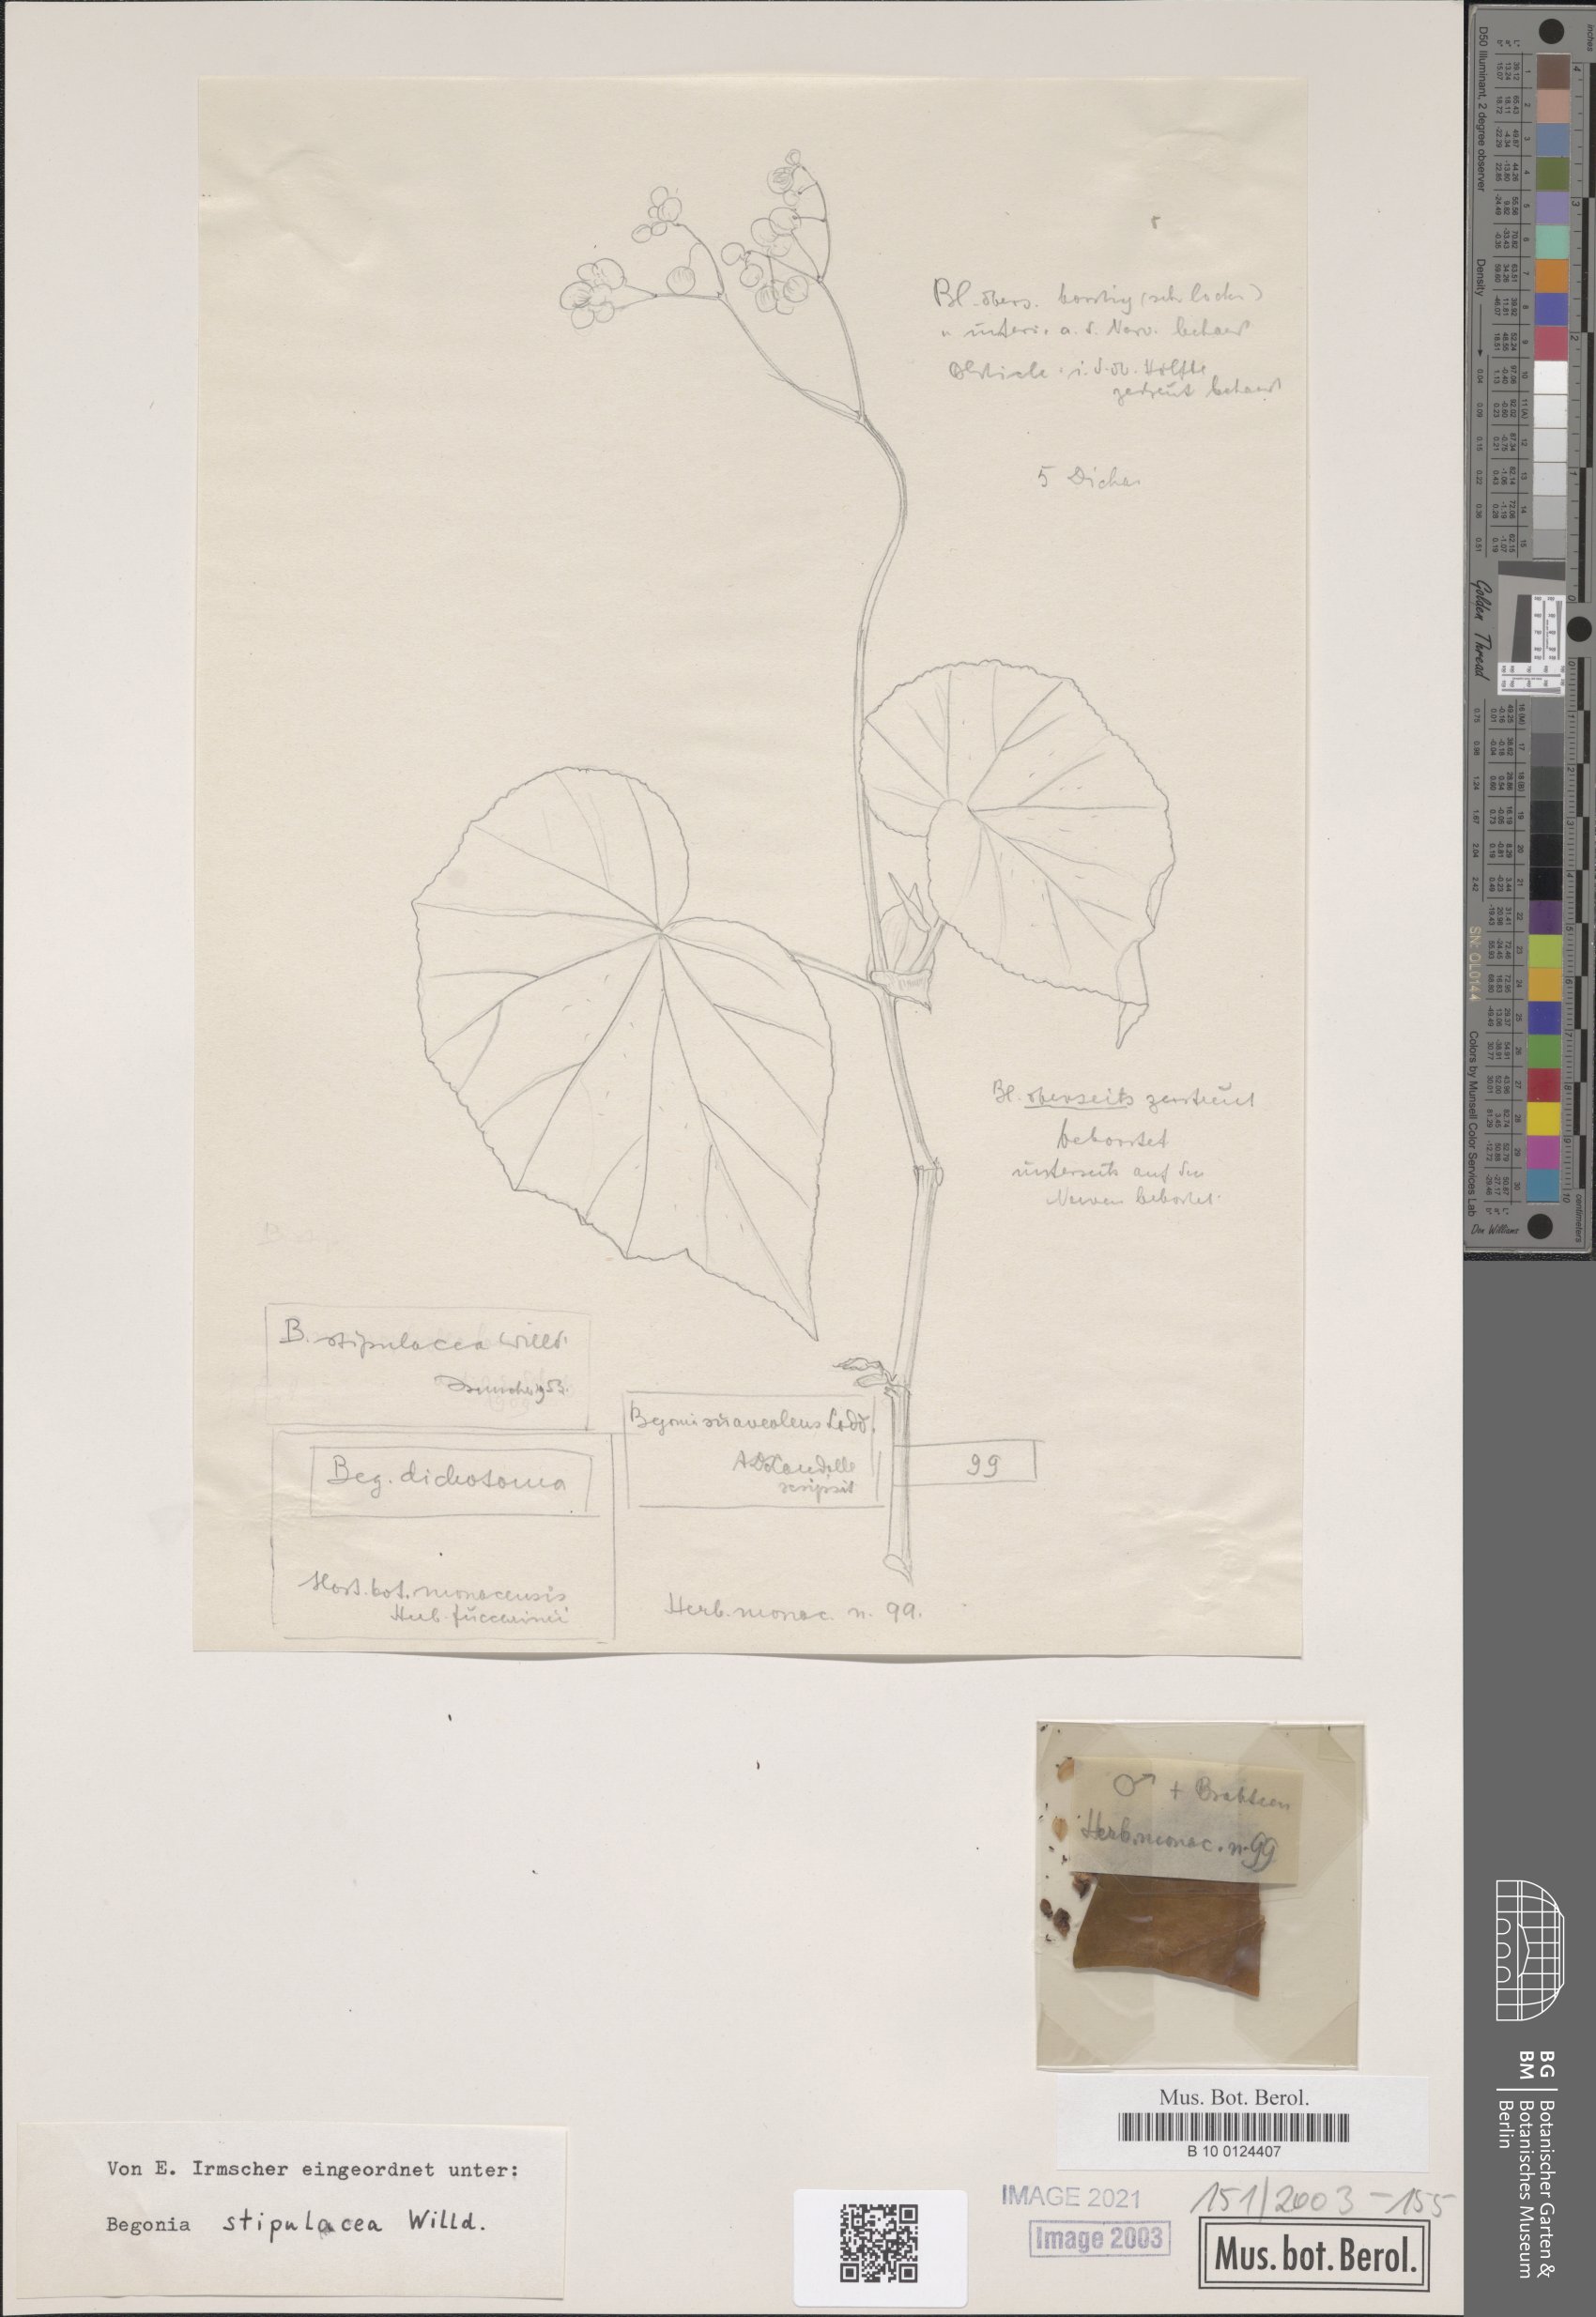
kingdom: Plantae
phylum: Tracheophyta
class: Magnoliopsida
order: Cucurbitales
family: Begoniaceae
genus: Begonia
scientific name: Begonia stipularis
